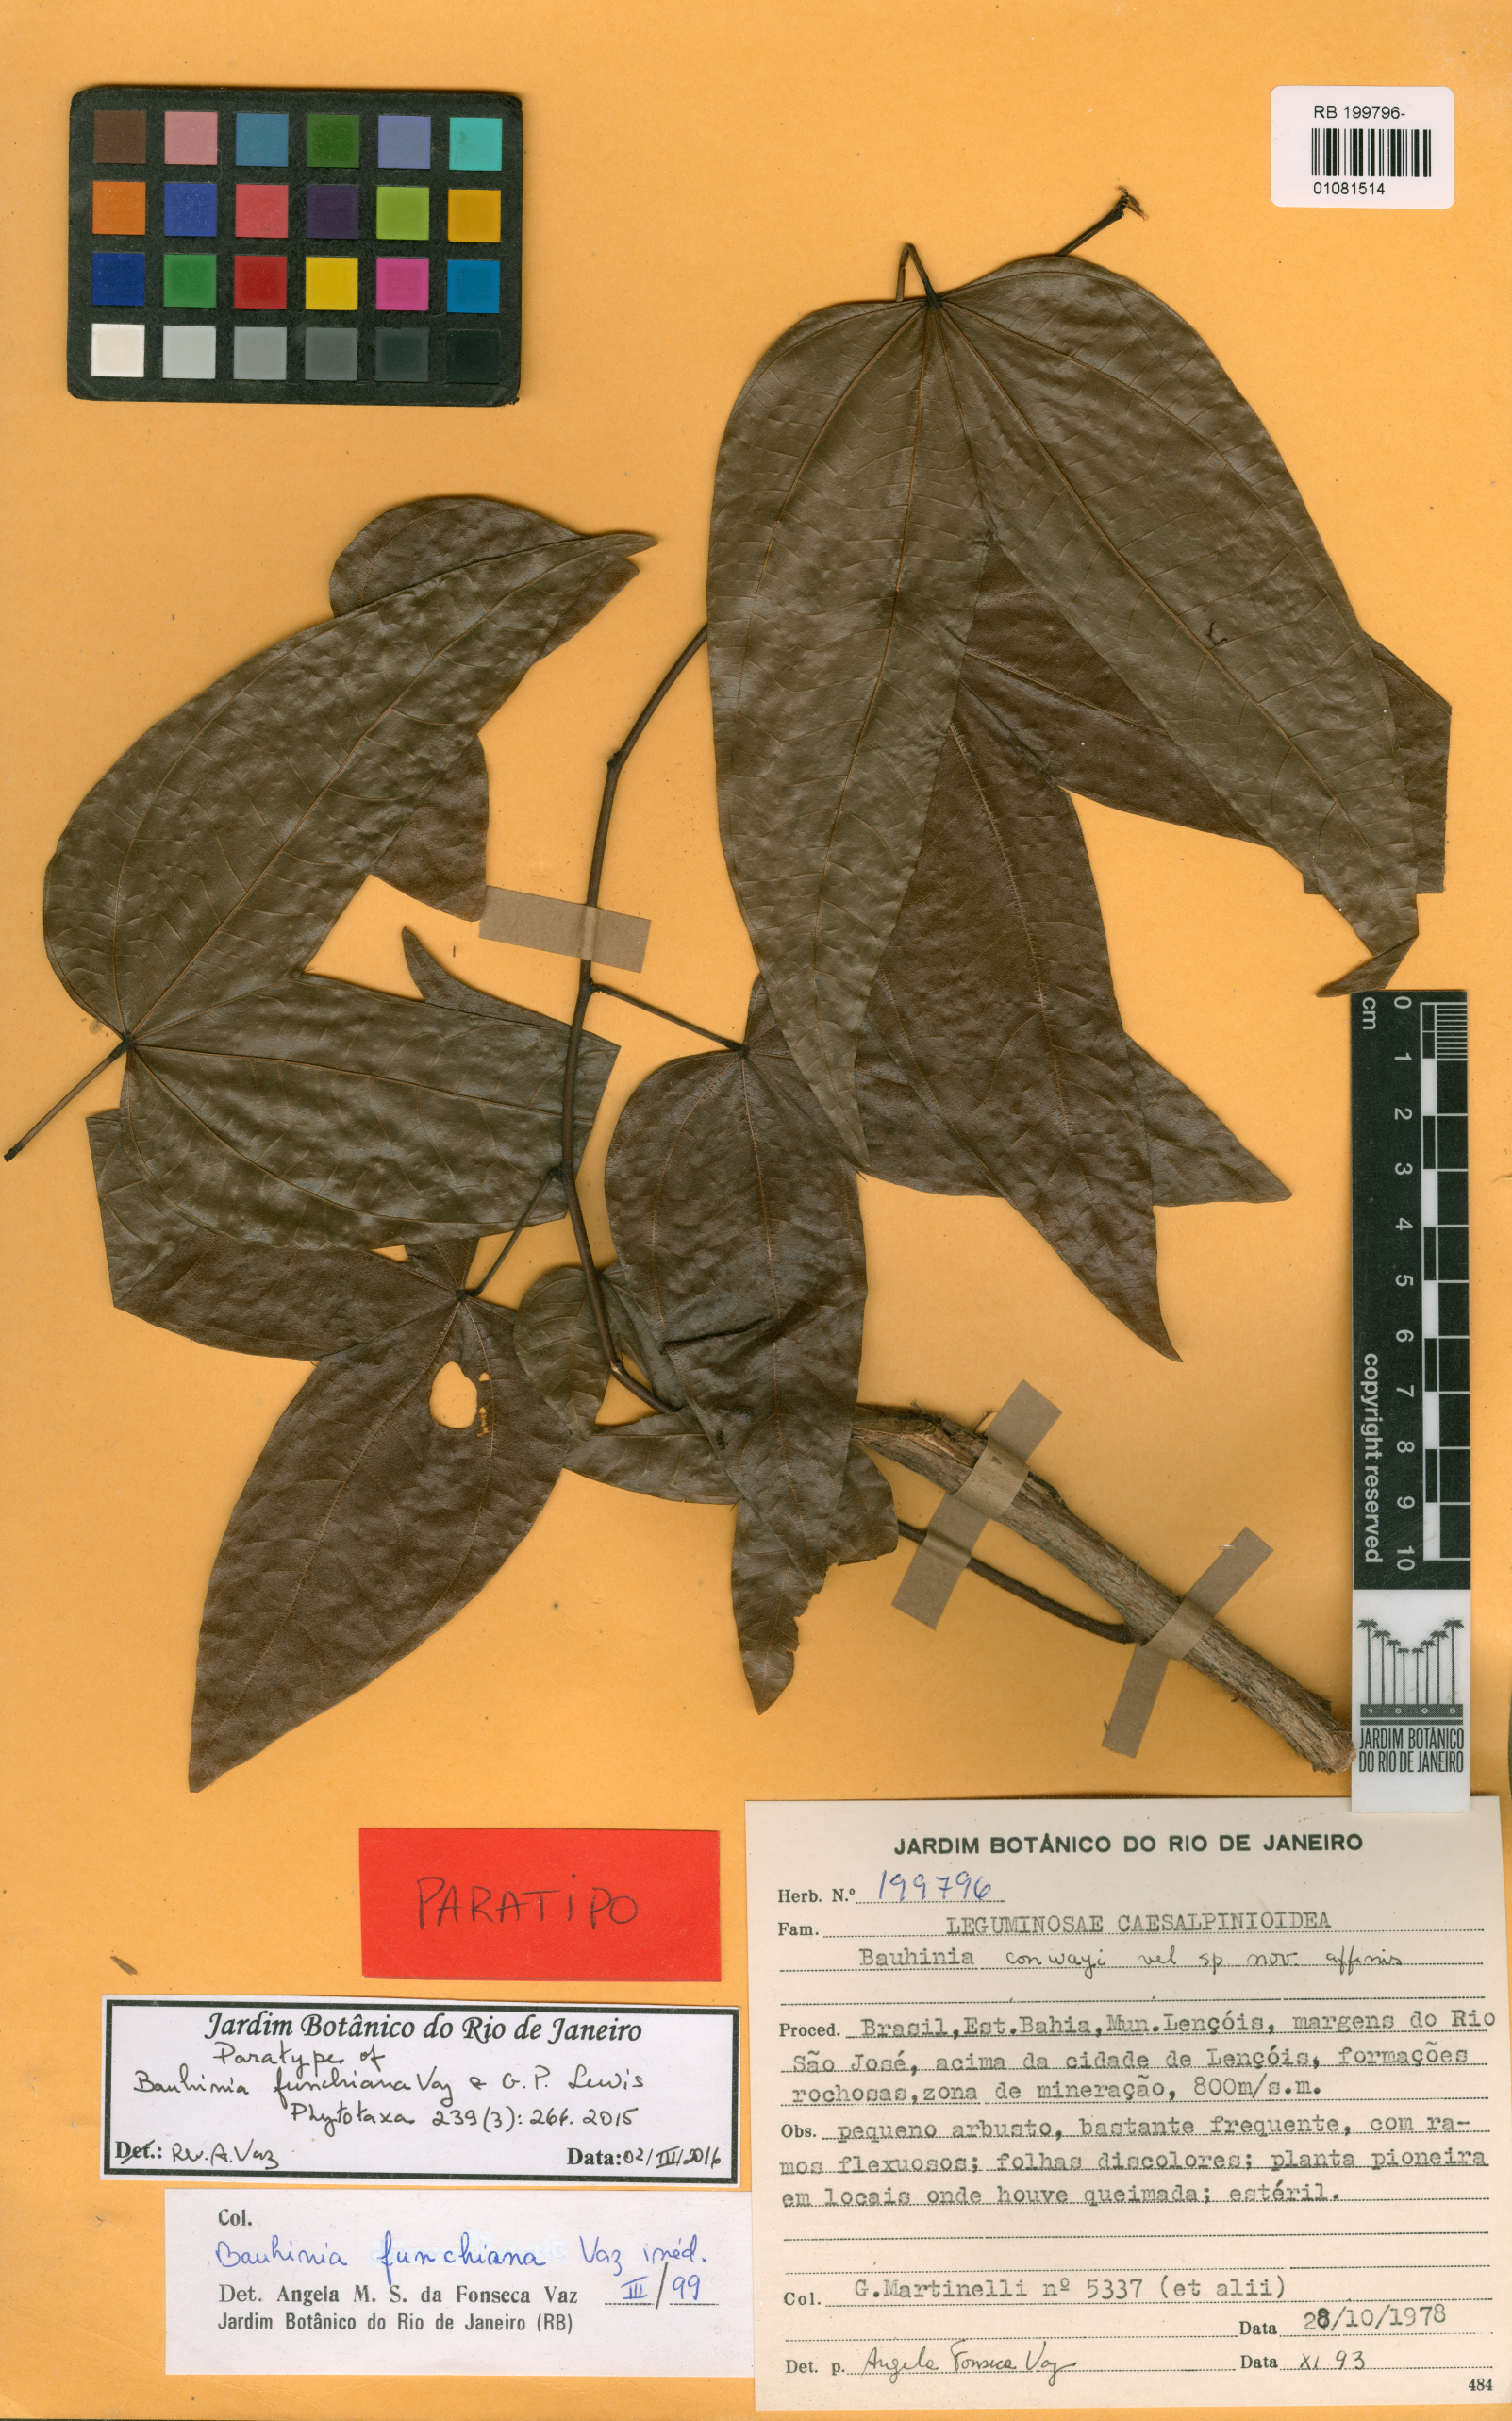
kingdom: Plantae
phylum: Tracheophyta
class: Magnoliopsida
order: Fabales
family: Fabaceae
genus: Bauhinia
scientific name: Bauhinia funchiana
